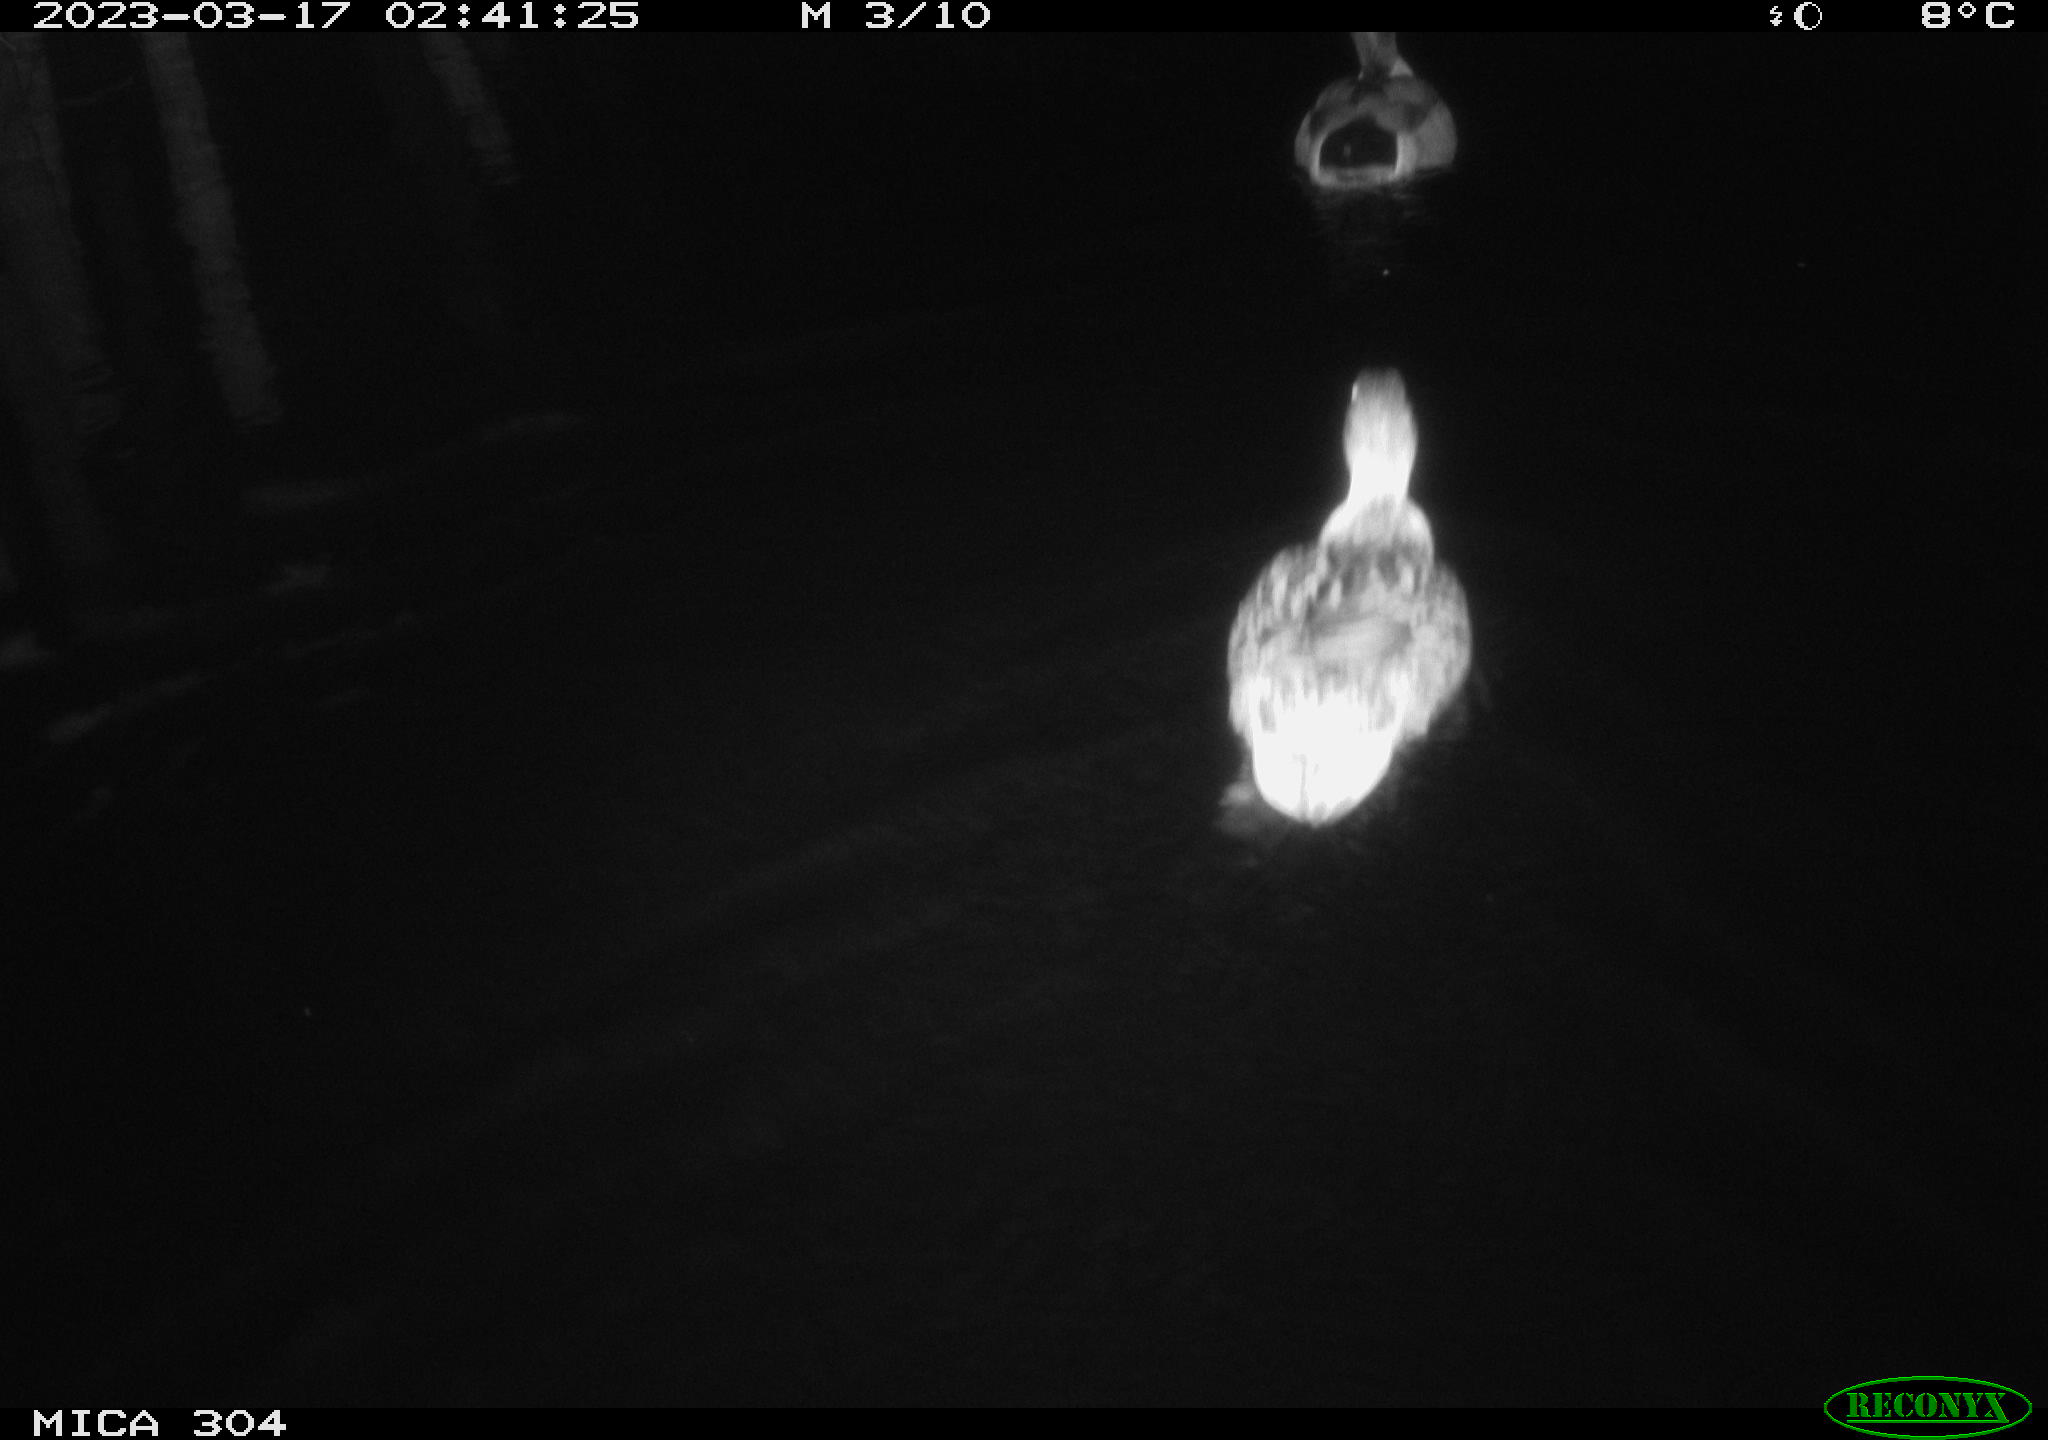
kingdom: Animalia
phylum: Chordata
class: Aves
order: Anseriformes
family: Anatidae
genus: Anas
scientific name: Anas
